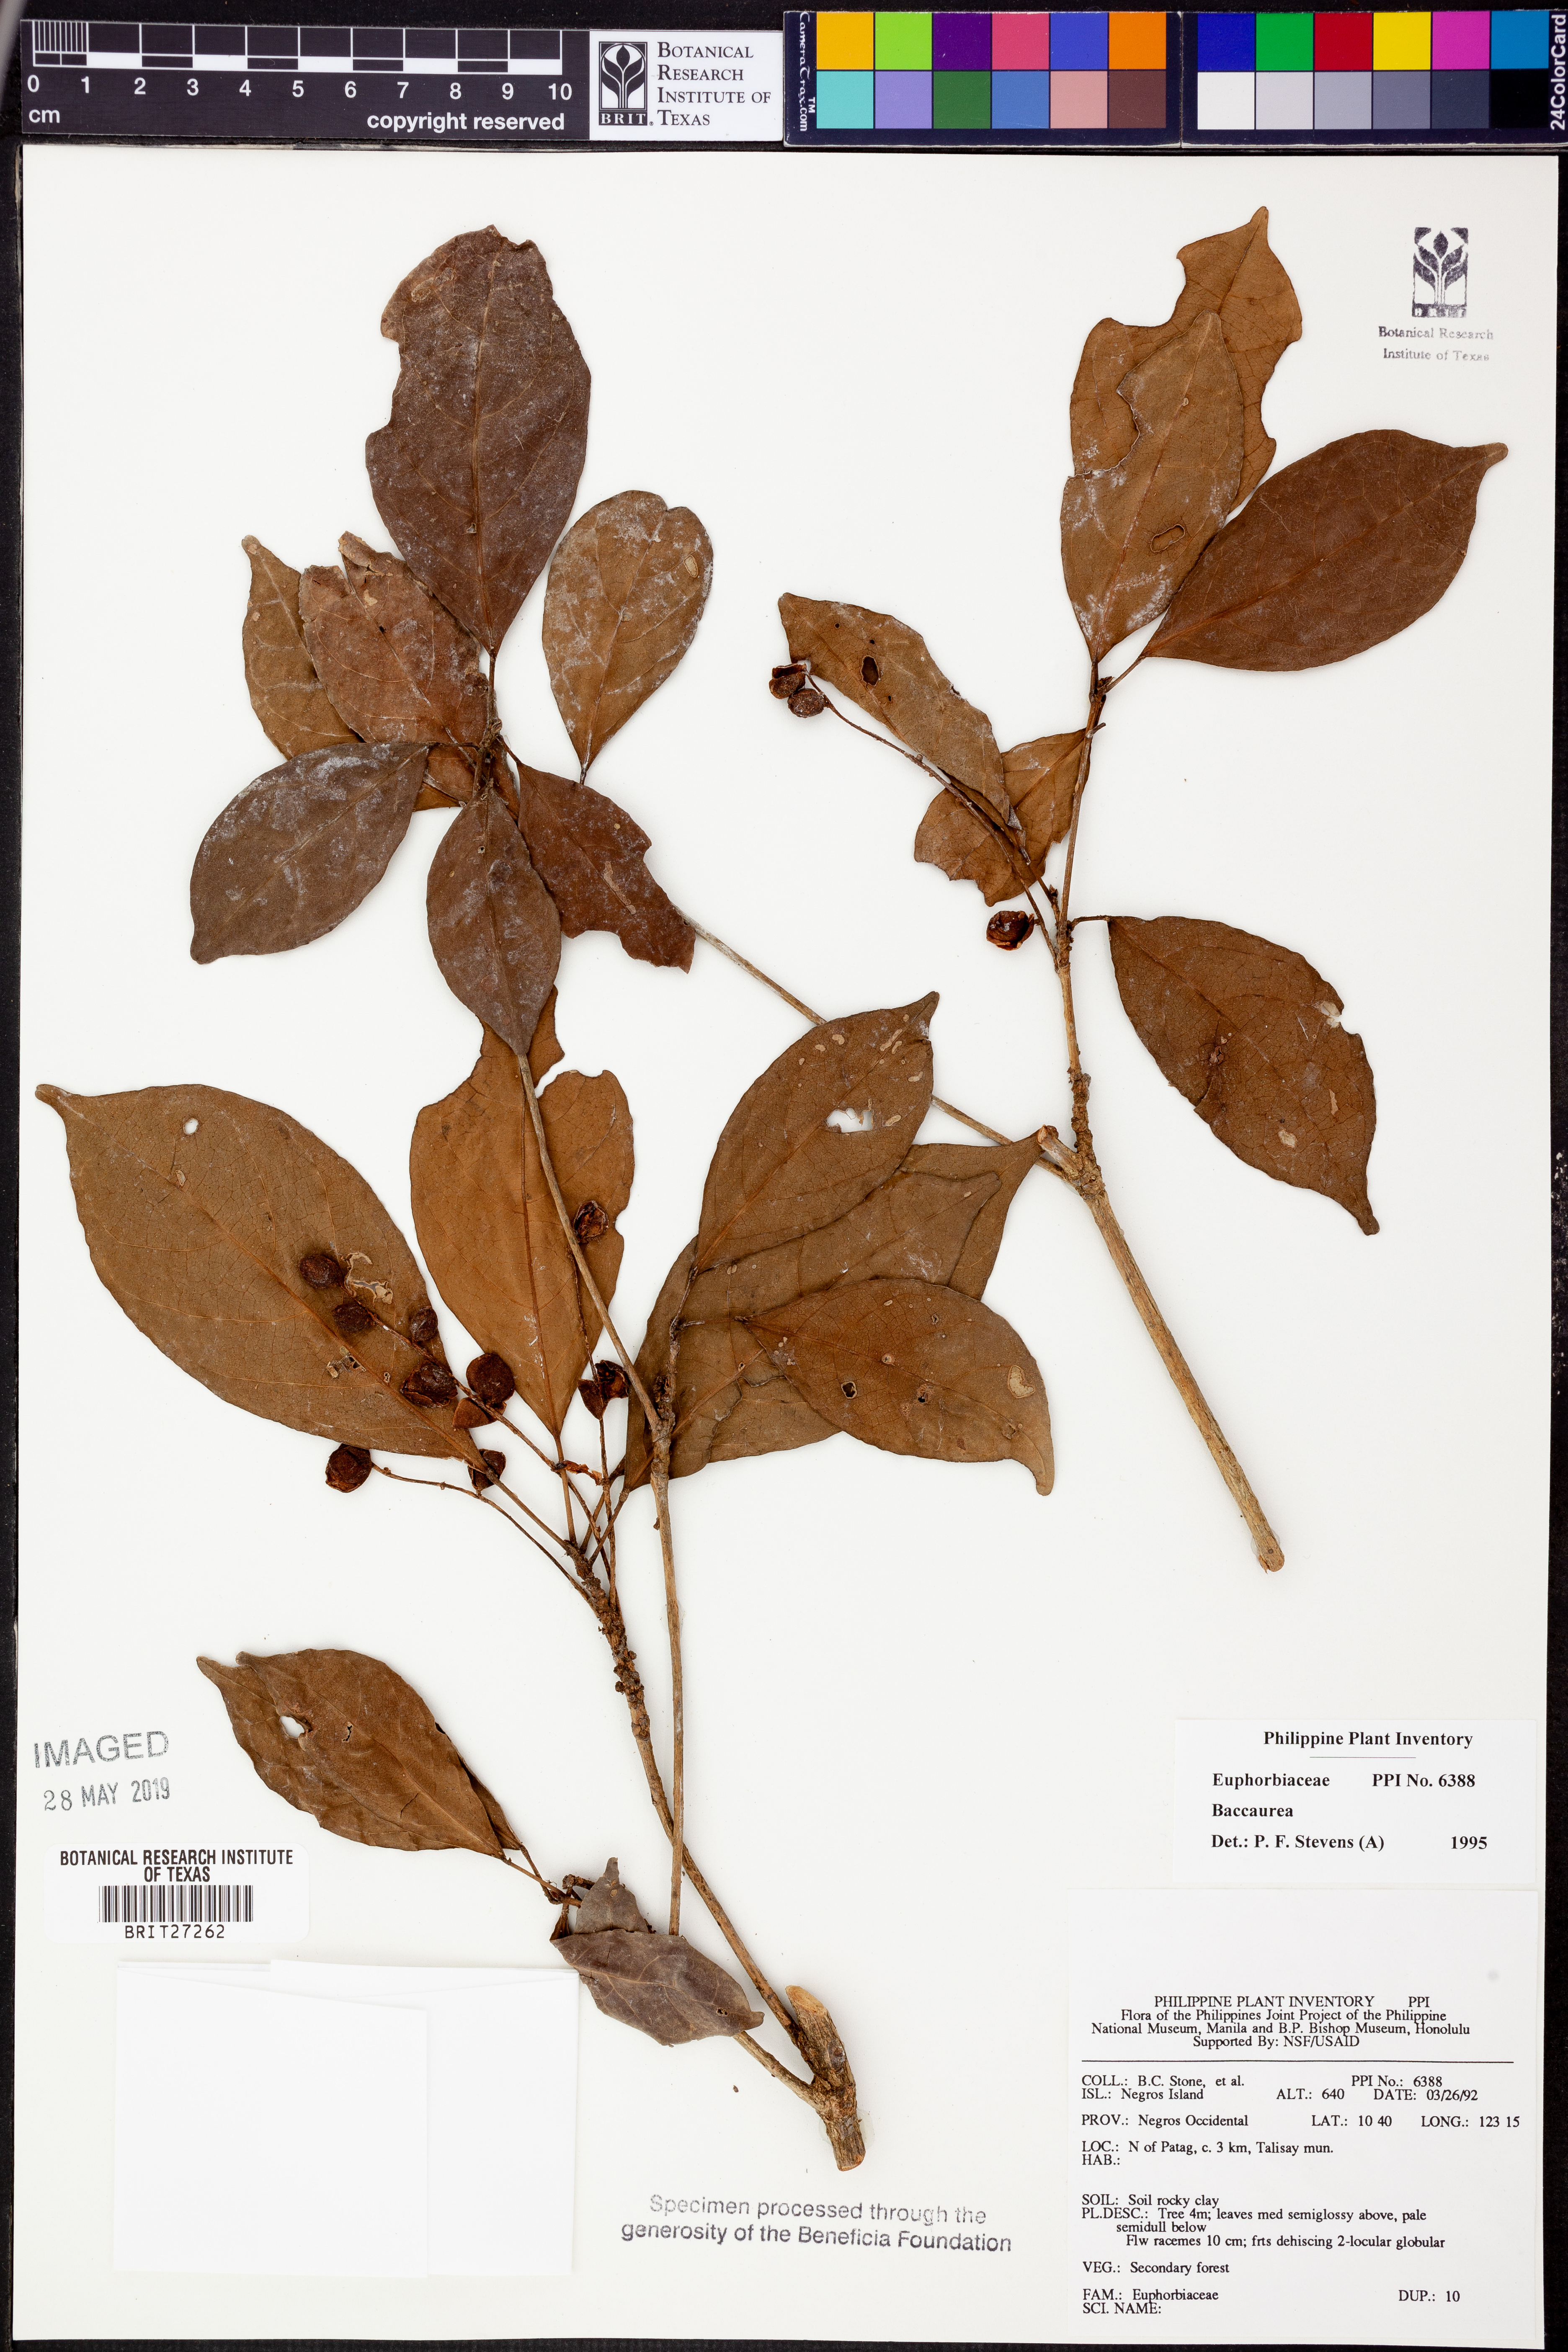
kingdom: Plantae
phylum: Tracheophyta
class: Magnoliopsida
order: Malpighiales
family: Phyllanthaceae
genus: Baccaurea
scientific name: Baccaurea
